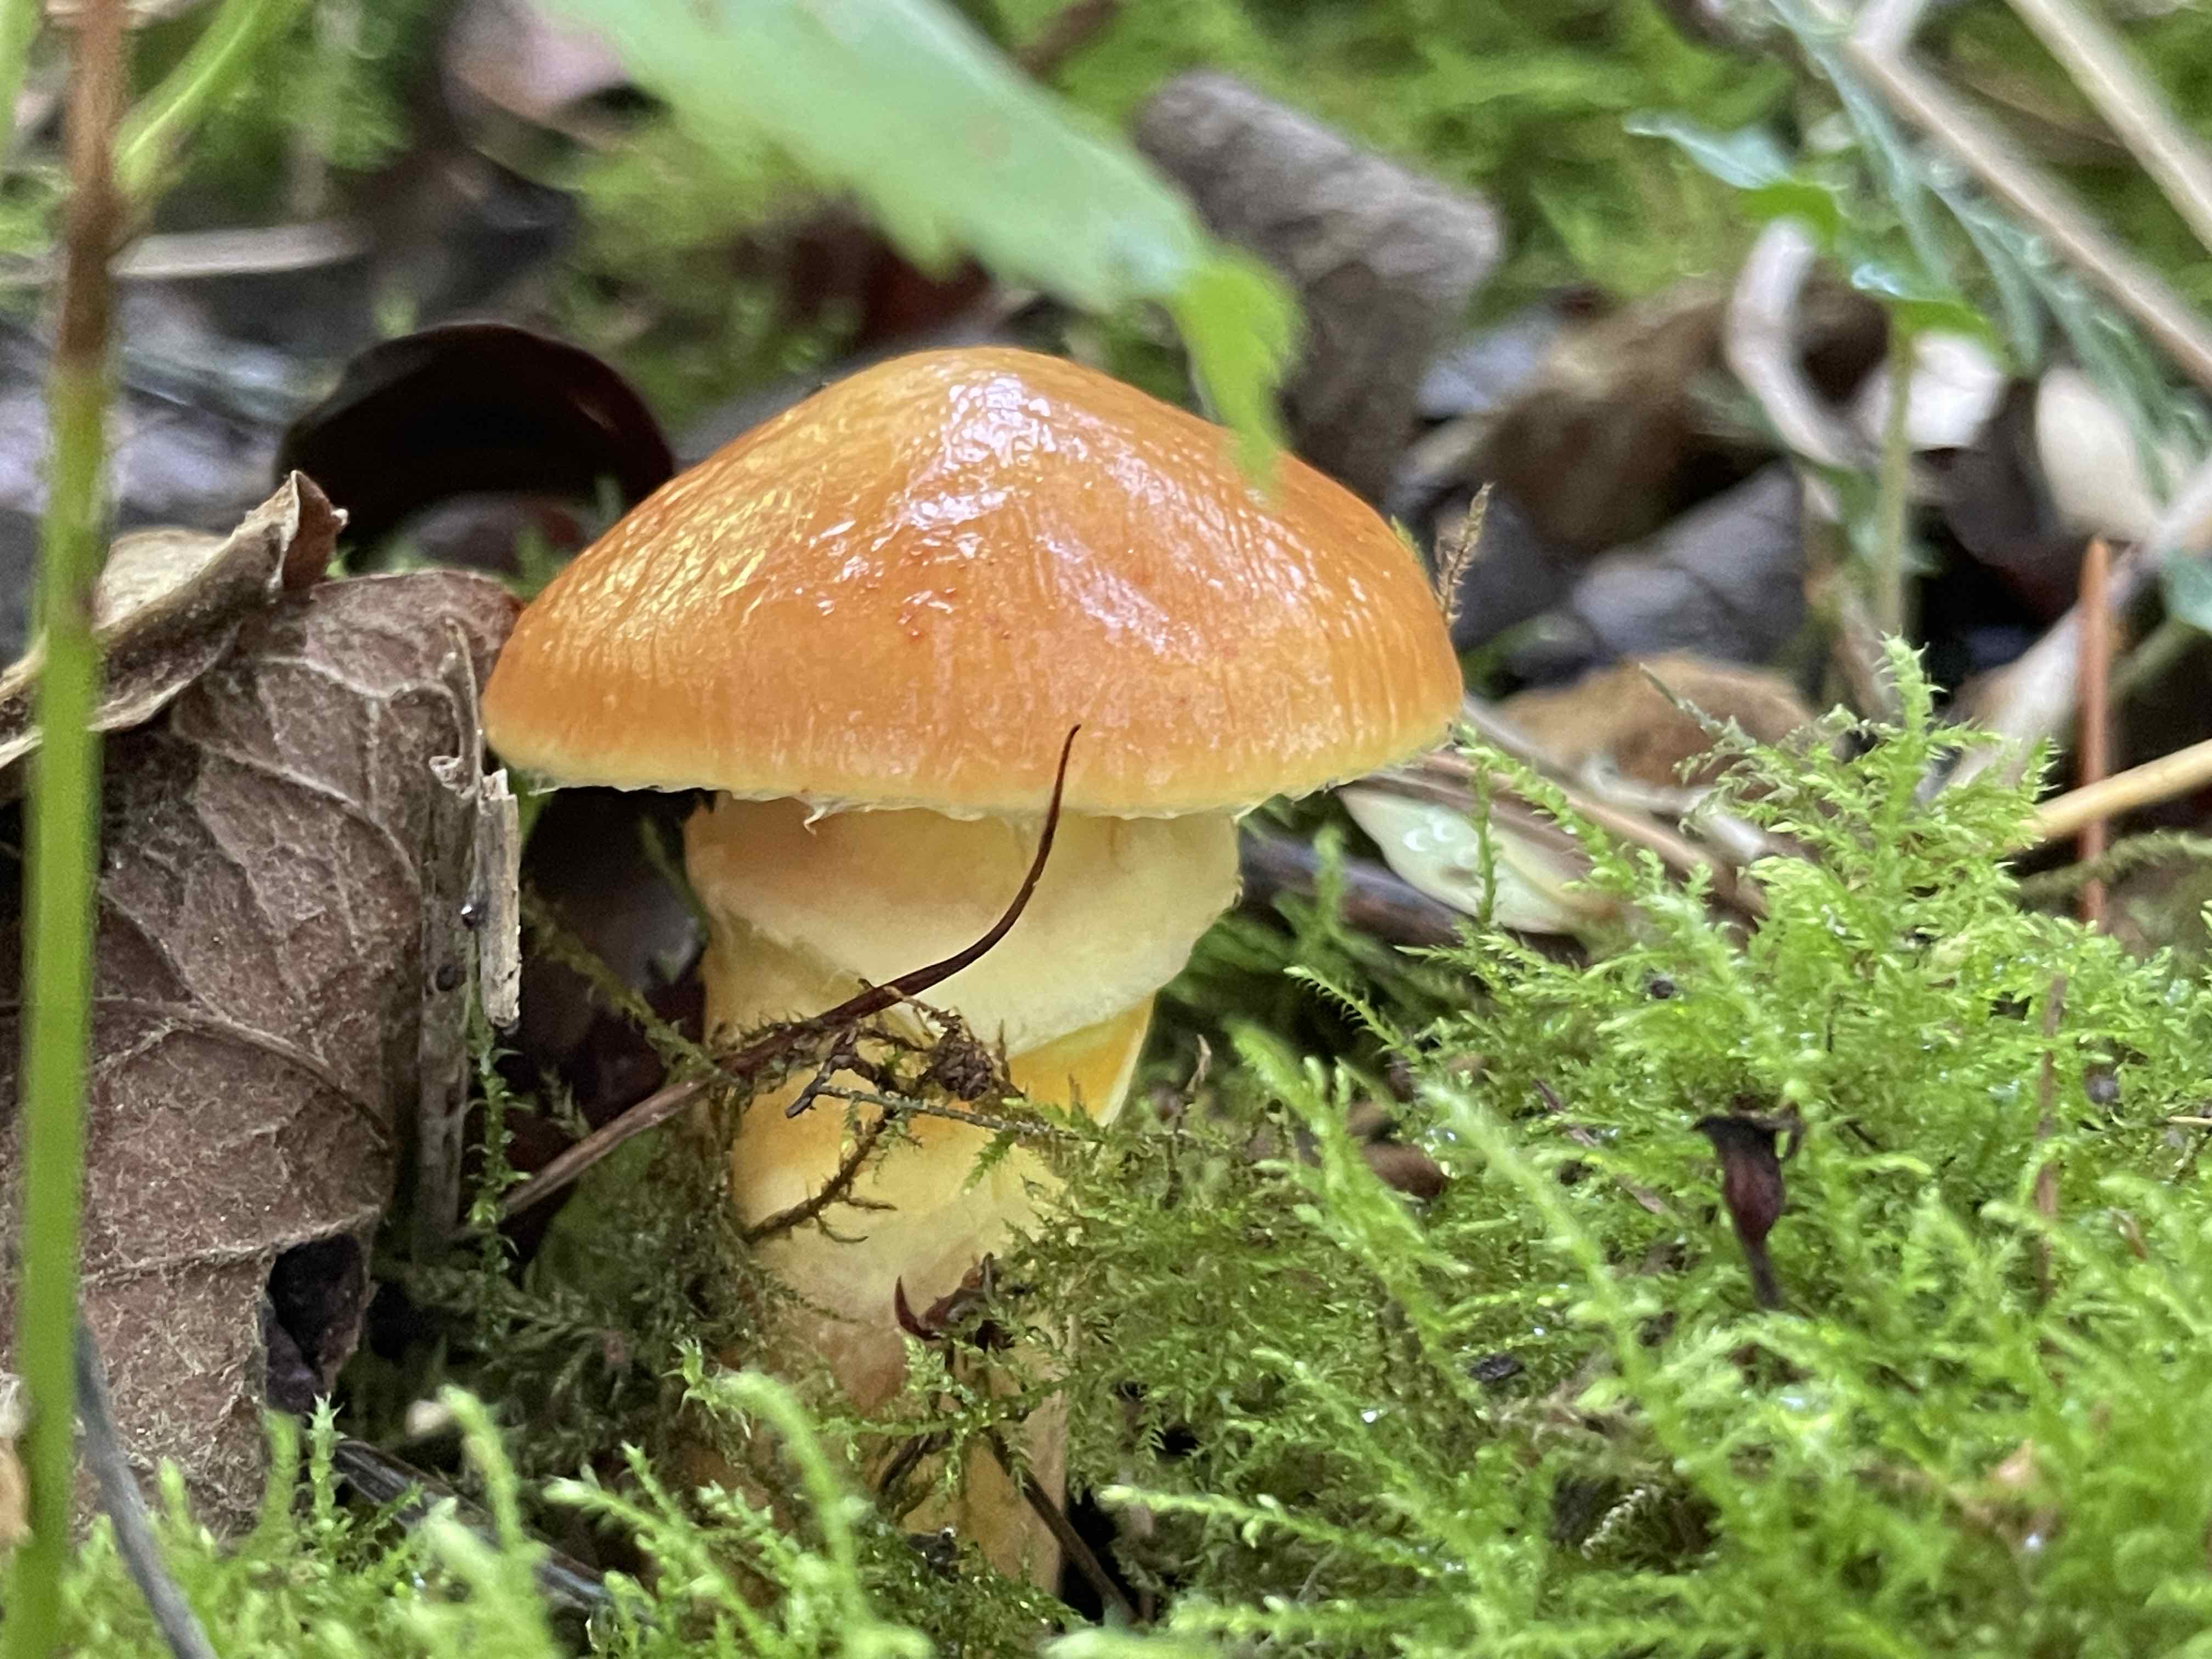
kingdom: Fungi
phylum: Basidiomycota
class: Agaricomycetes
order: Boletales
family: Suillaceae
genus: Suillus
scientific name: Suillus grevillei
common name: lærke-slimrørhat
